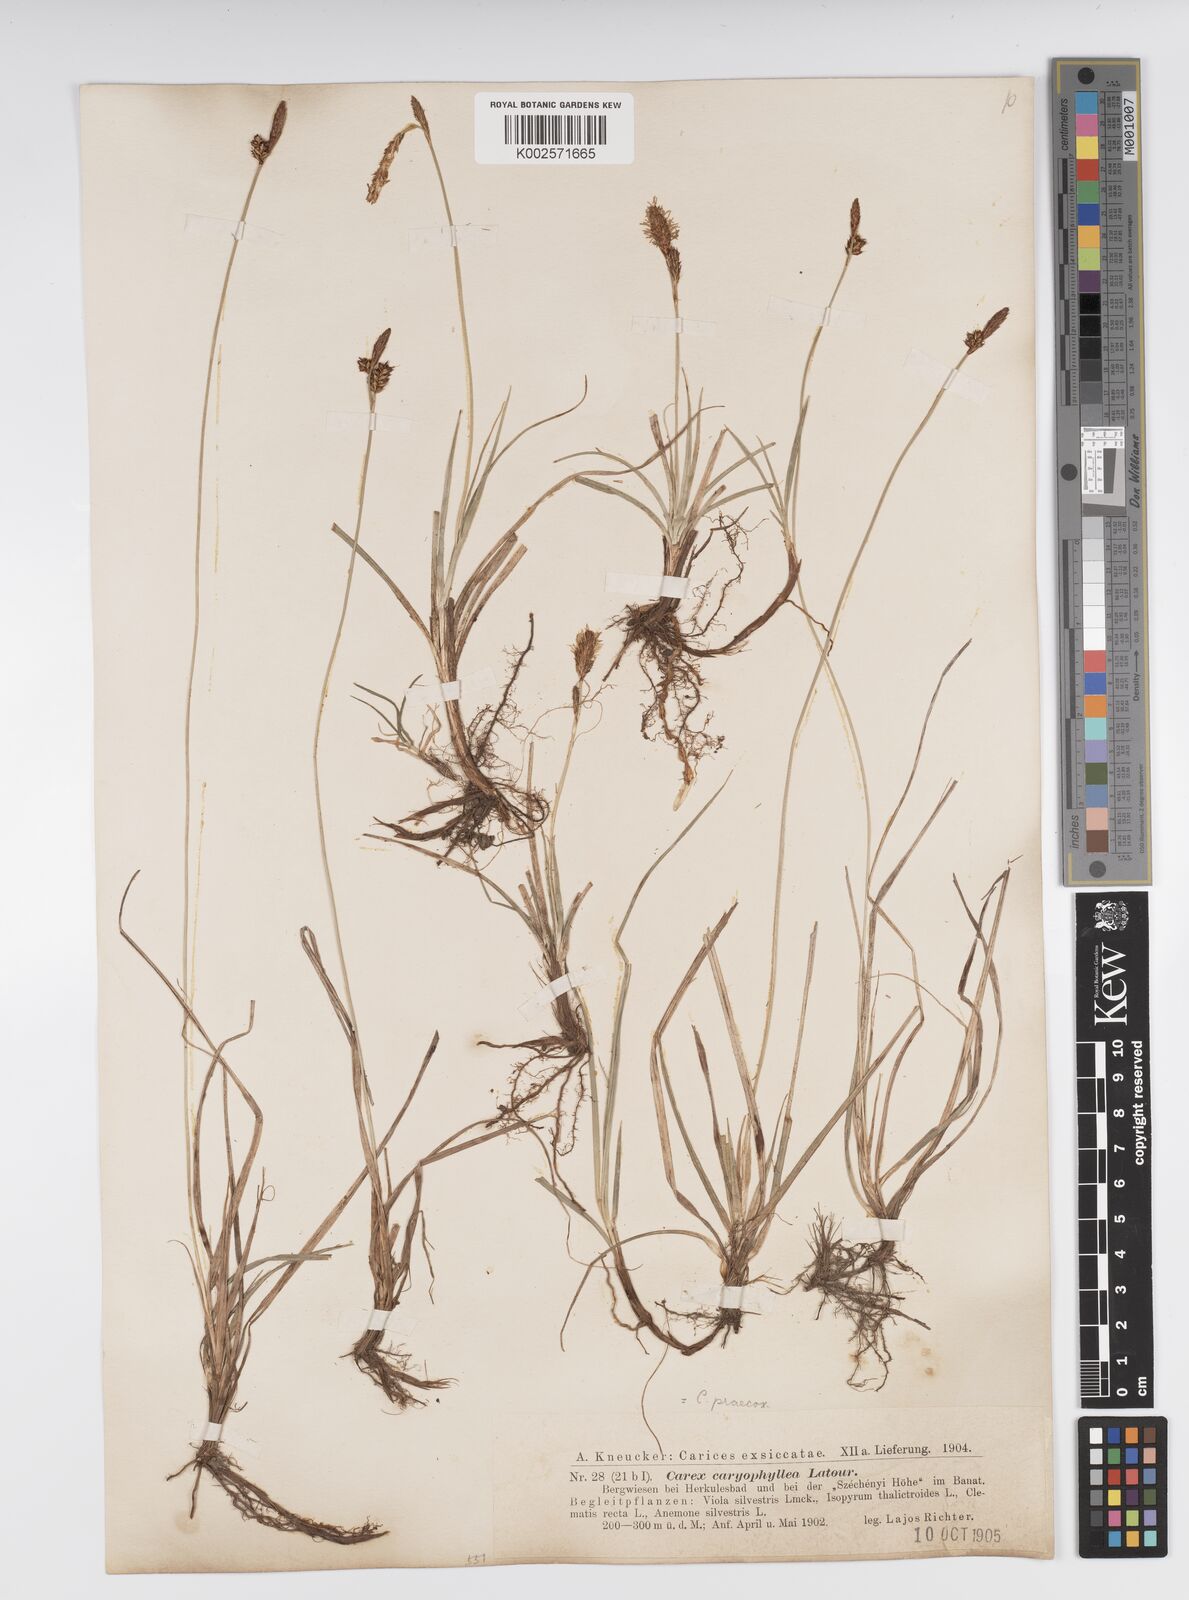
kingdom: Plantae
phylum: Tracheophyta
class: Liliopsida
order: Poales
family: Cyperaceae
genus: Carex
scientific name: Carex caryophyllea
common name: Spring sedge
